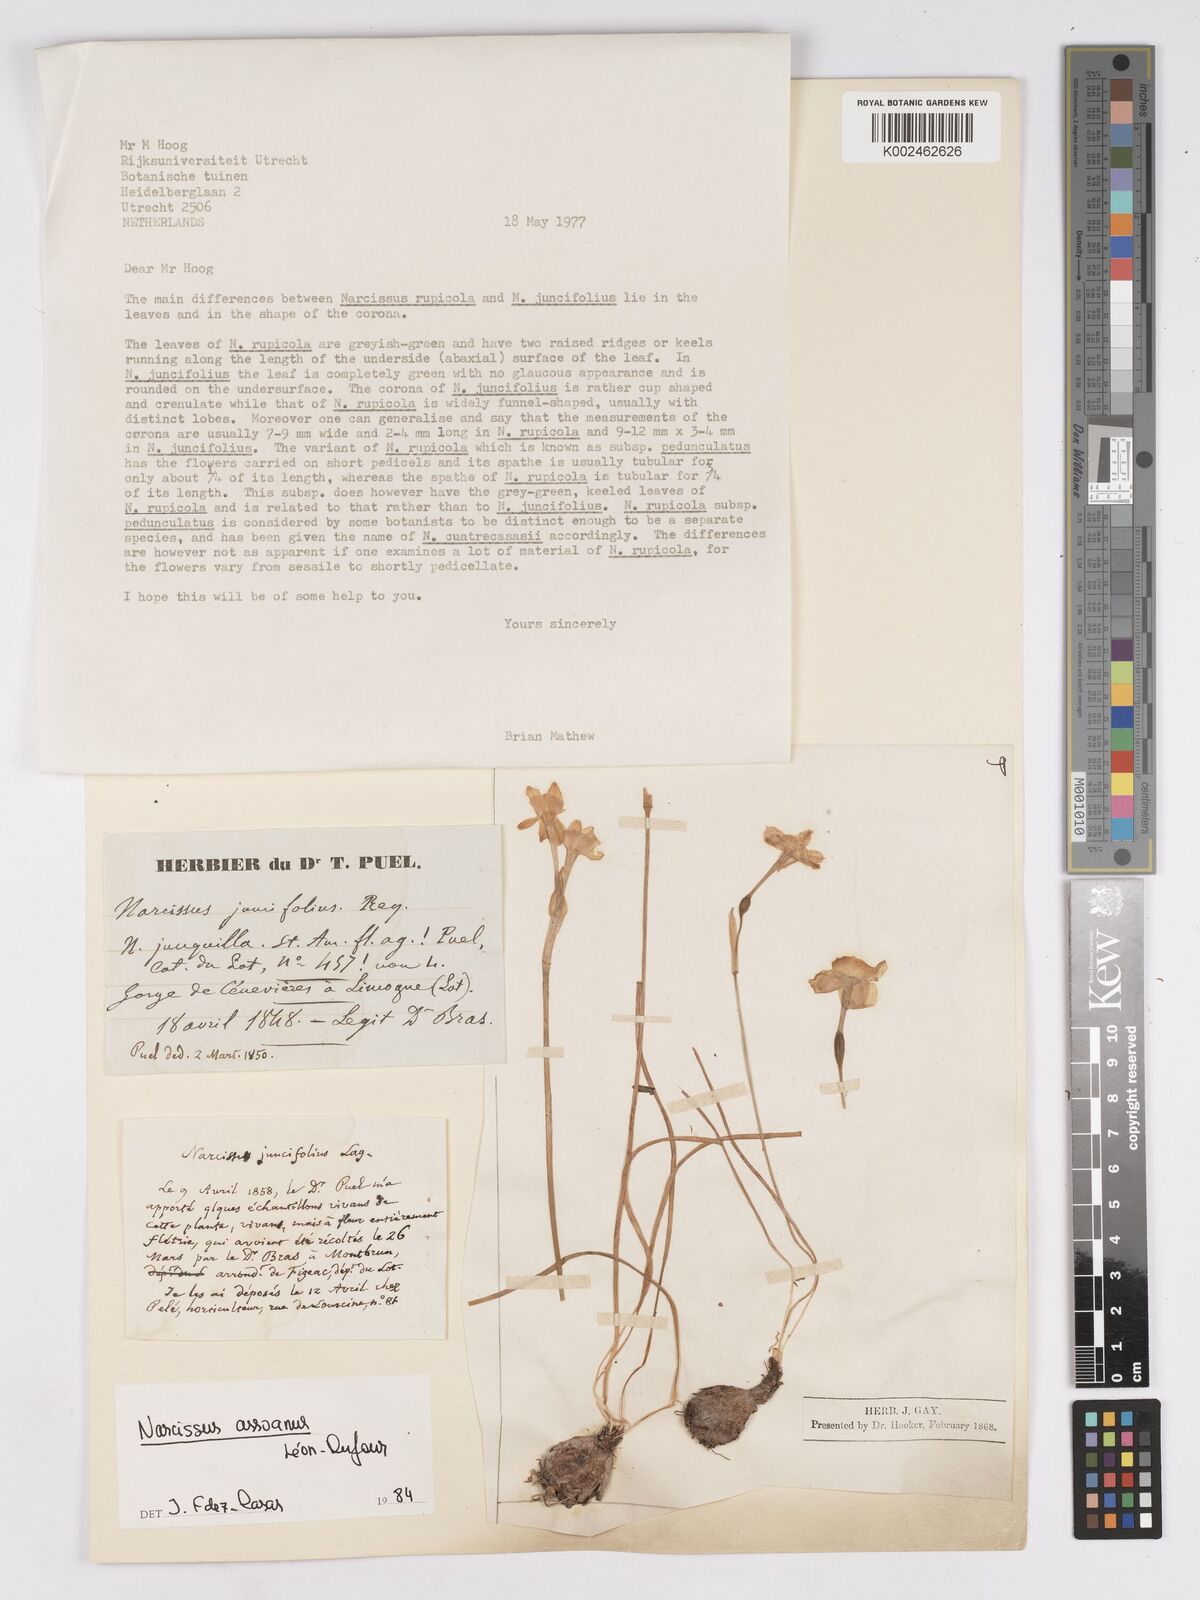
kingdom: Plantae
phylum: Tracheophyta
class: Liliopsida
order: Asparagales
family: Amaryllidaceae
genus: Narcissus
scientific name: Narcissus assoanus
